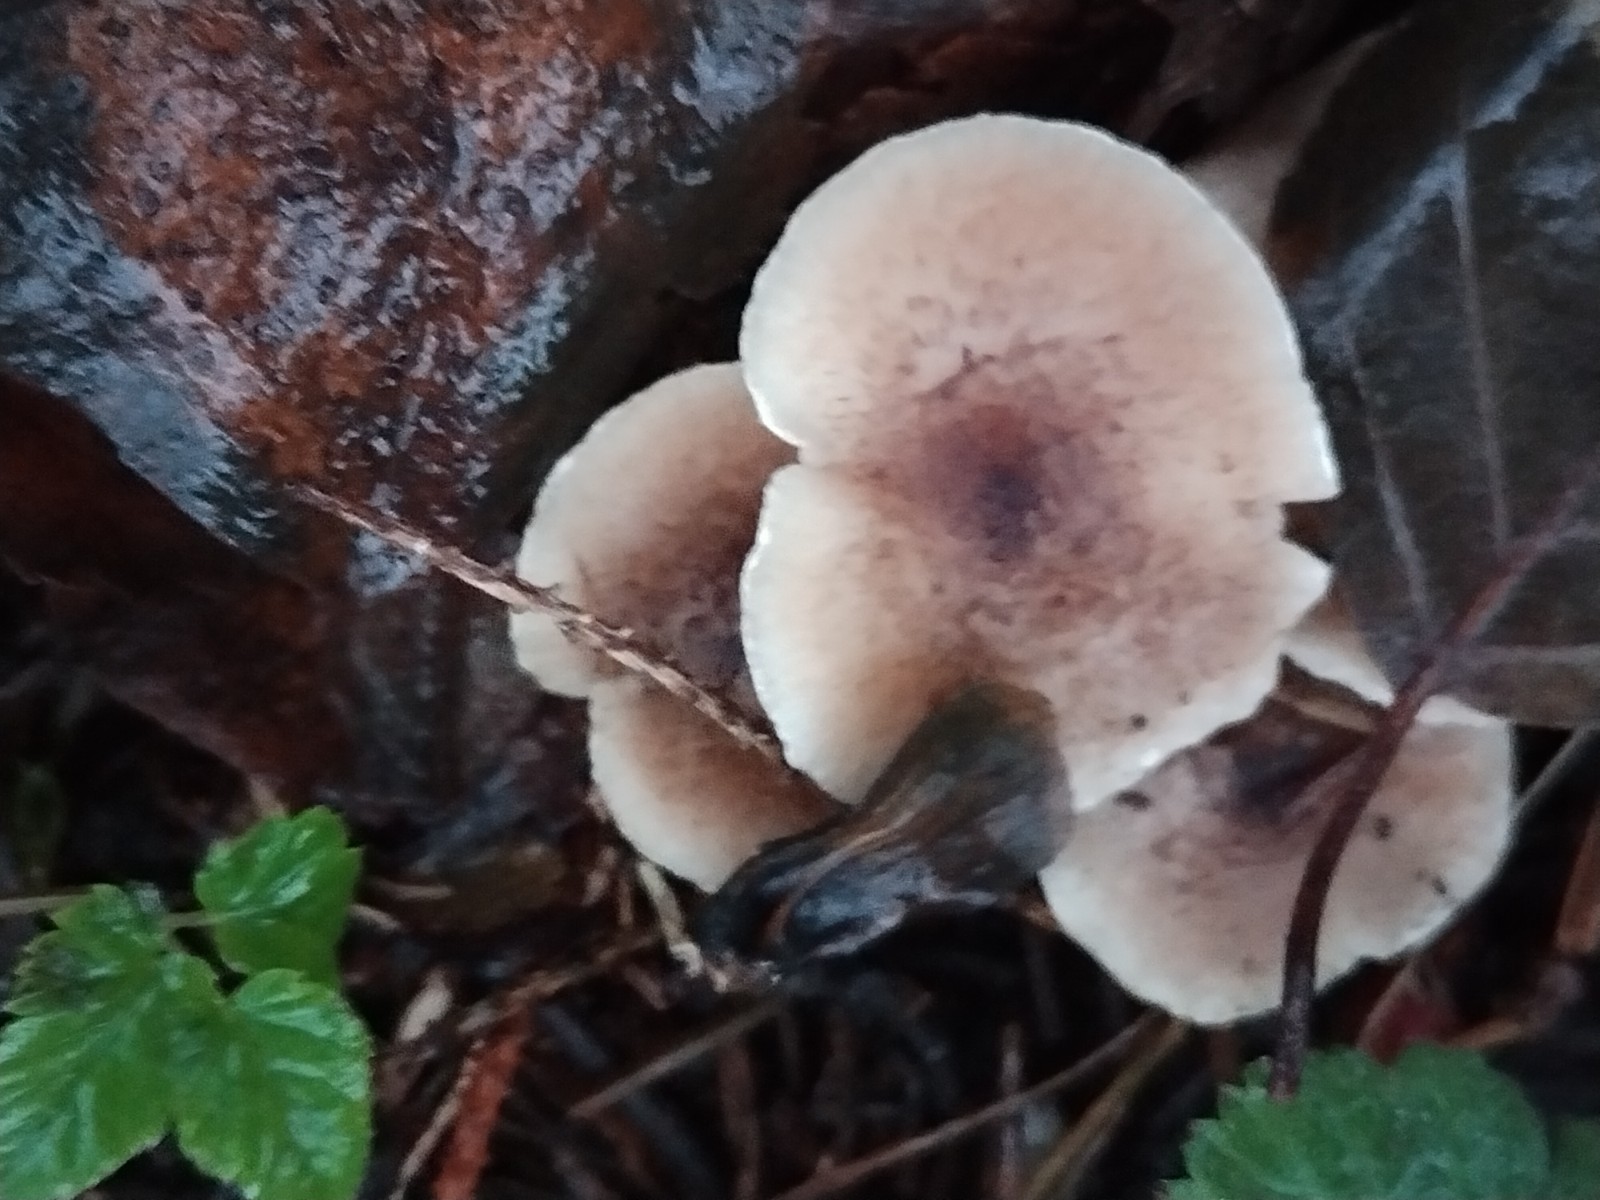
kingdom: Fungi
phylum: Basidiomycota
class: Agaricomycetes
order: Agaricales
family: Tricholomataceae
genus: Tricholoma
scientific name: Tricholoma scalpturatum
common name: gulplettet ridderhat
